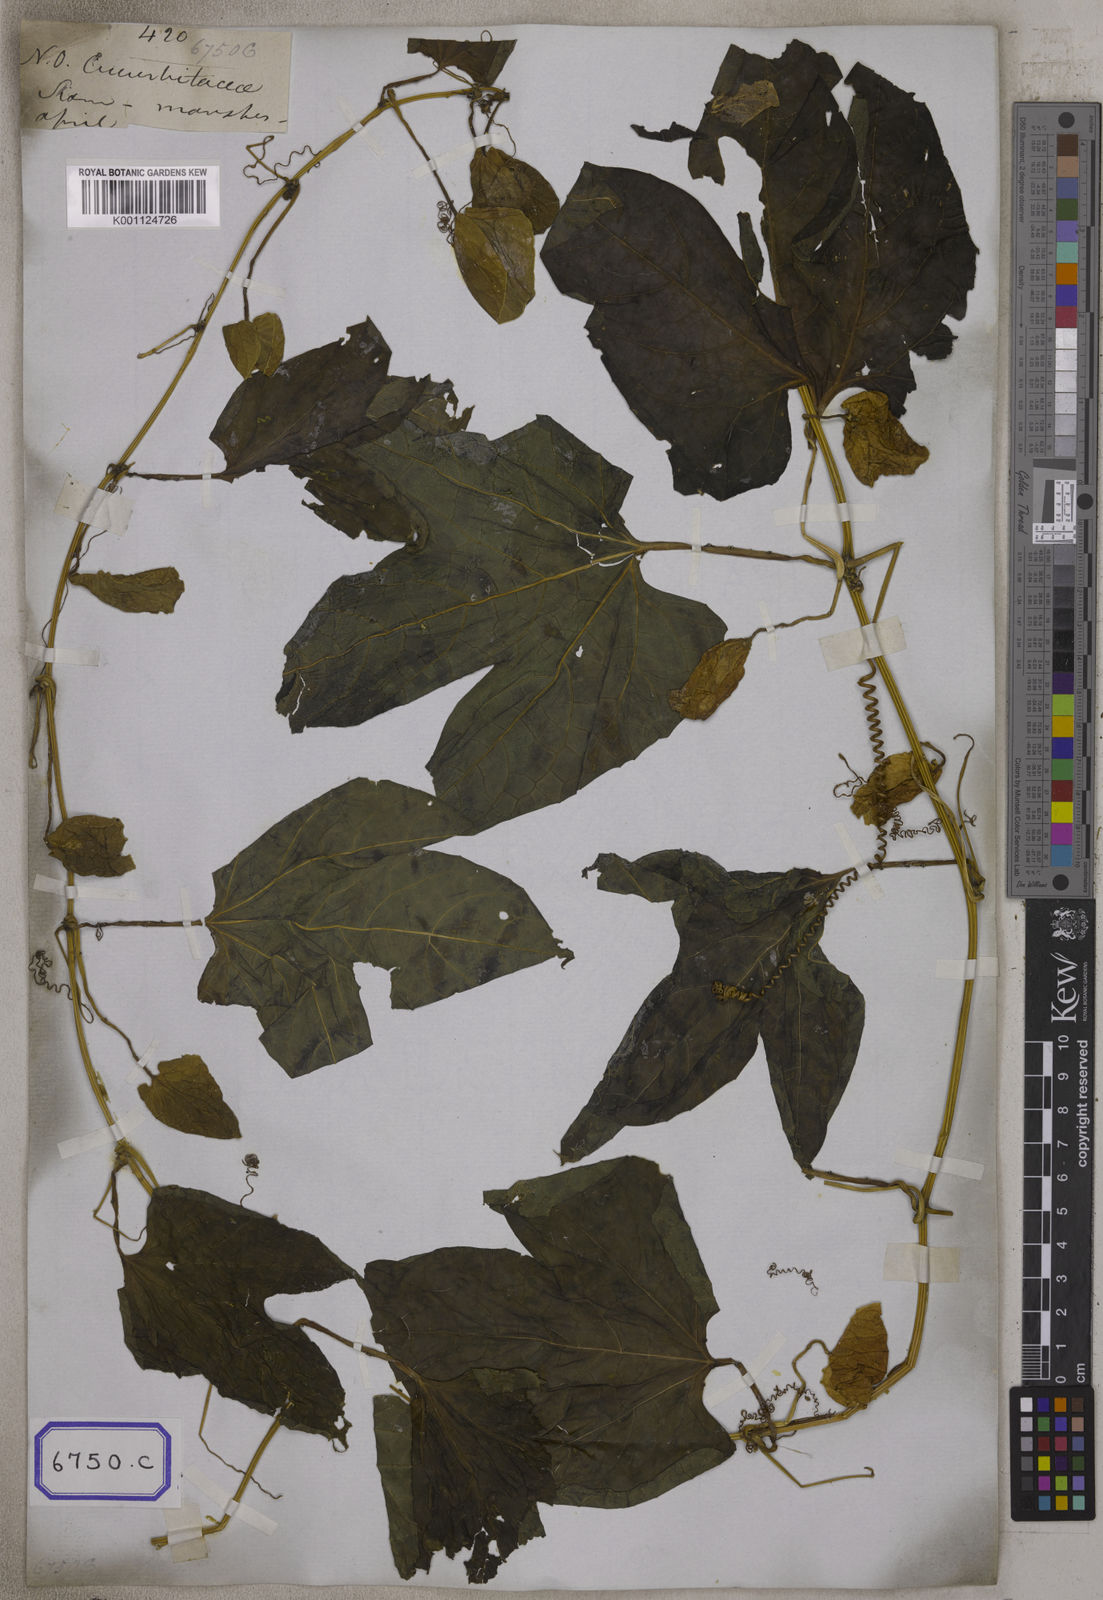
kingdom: Plantae
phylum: Tracheophyta
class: Magnoliopsida
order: Cucurbitales
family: Cucurbitaceae
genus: Momordica
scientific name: Momordica
